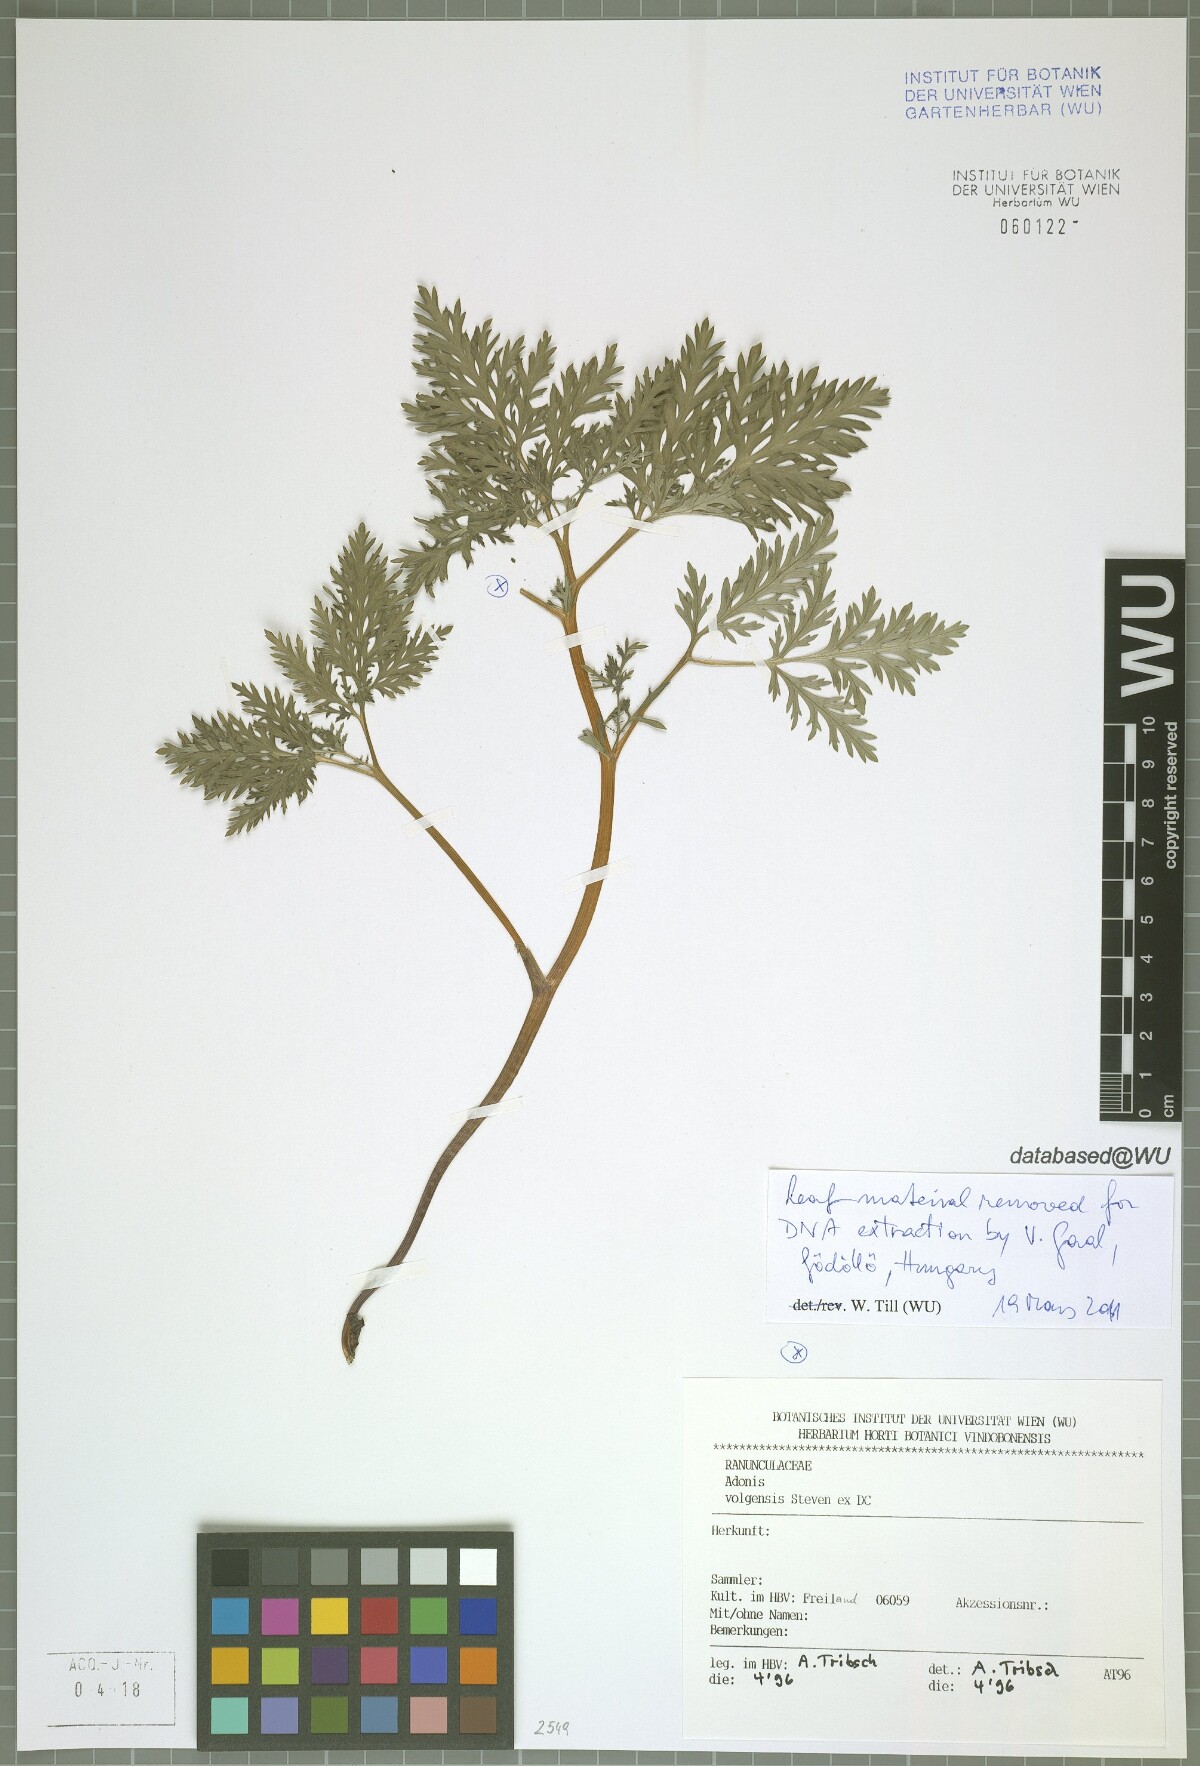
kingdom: Plantae
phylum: Tracheophyta
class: Magnoliopsida
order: Ranunculales
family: Ranunculaceae
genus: Adonis
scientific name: Adonis volgensis
